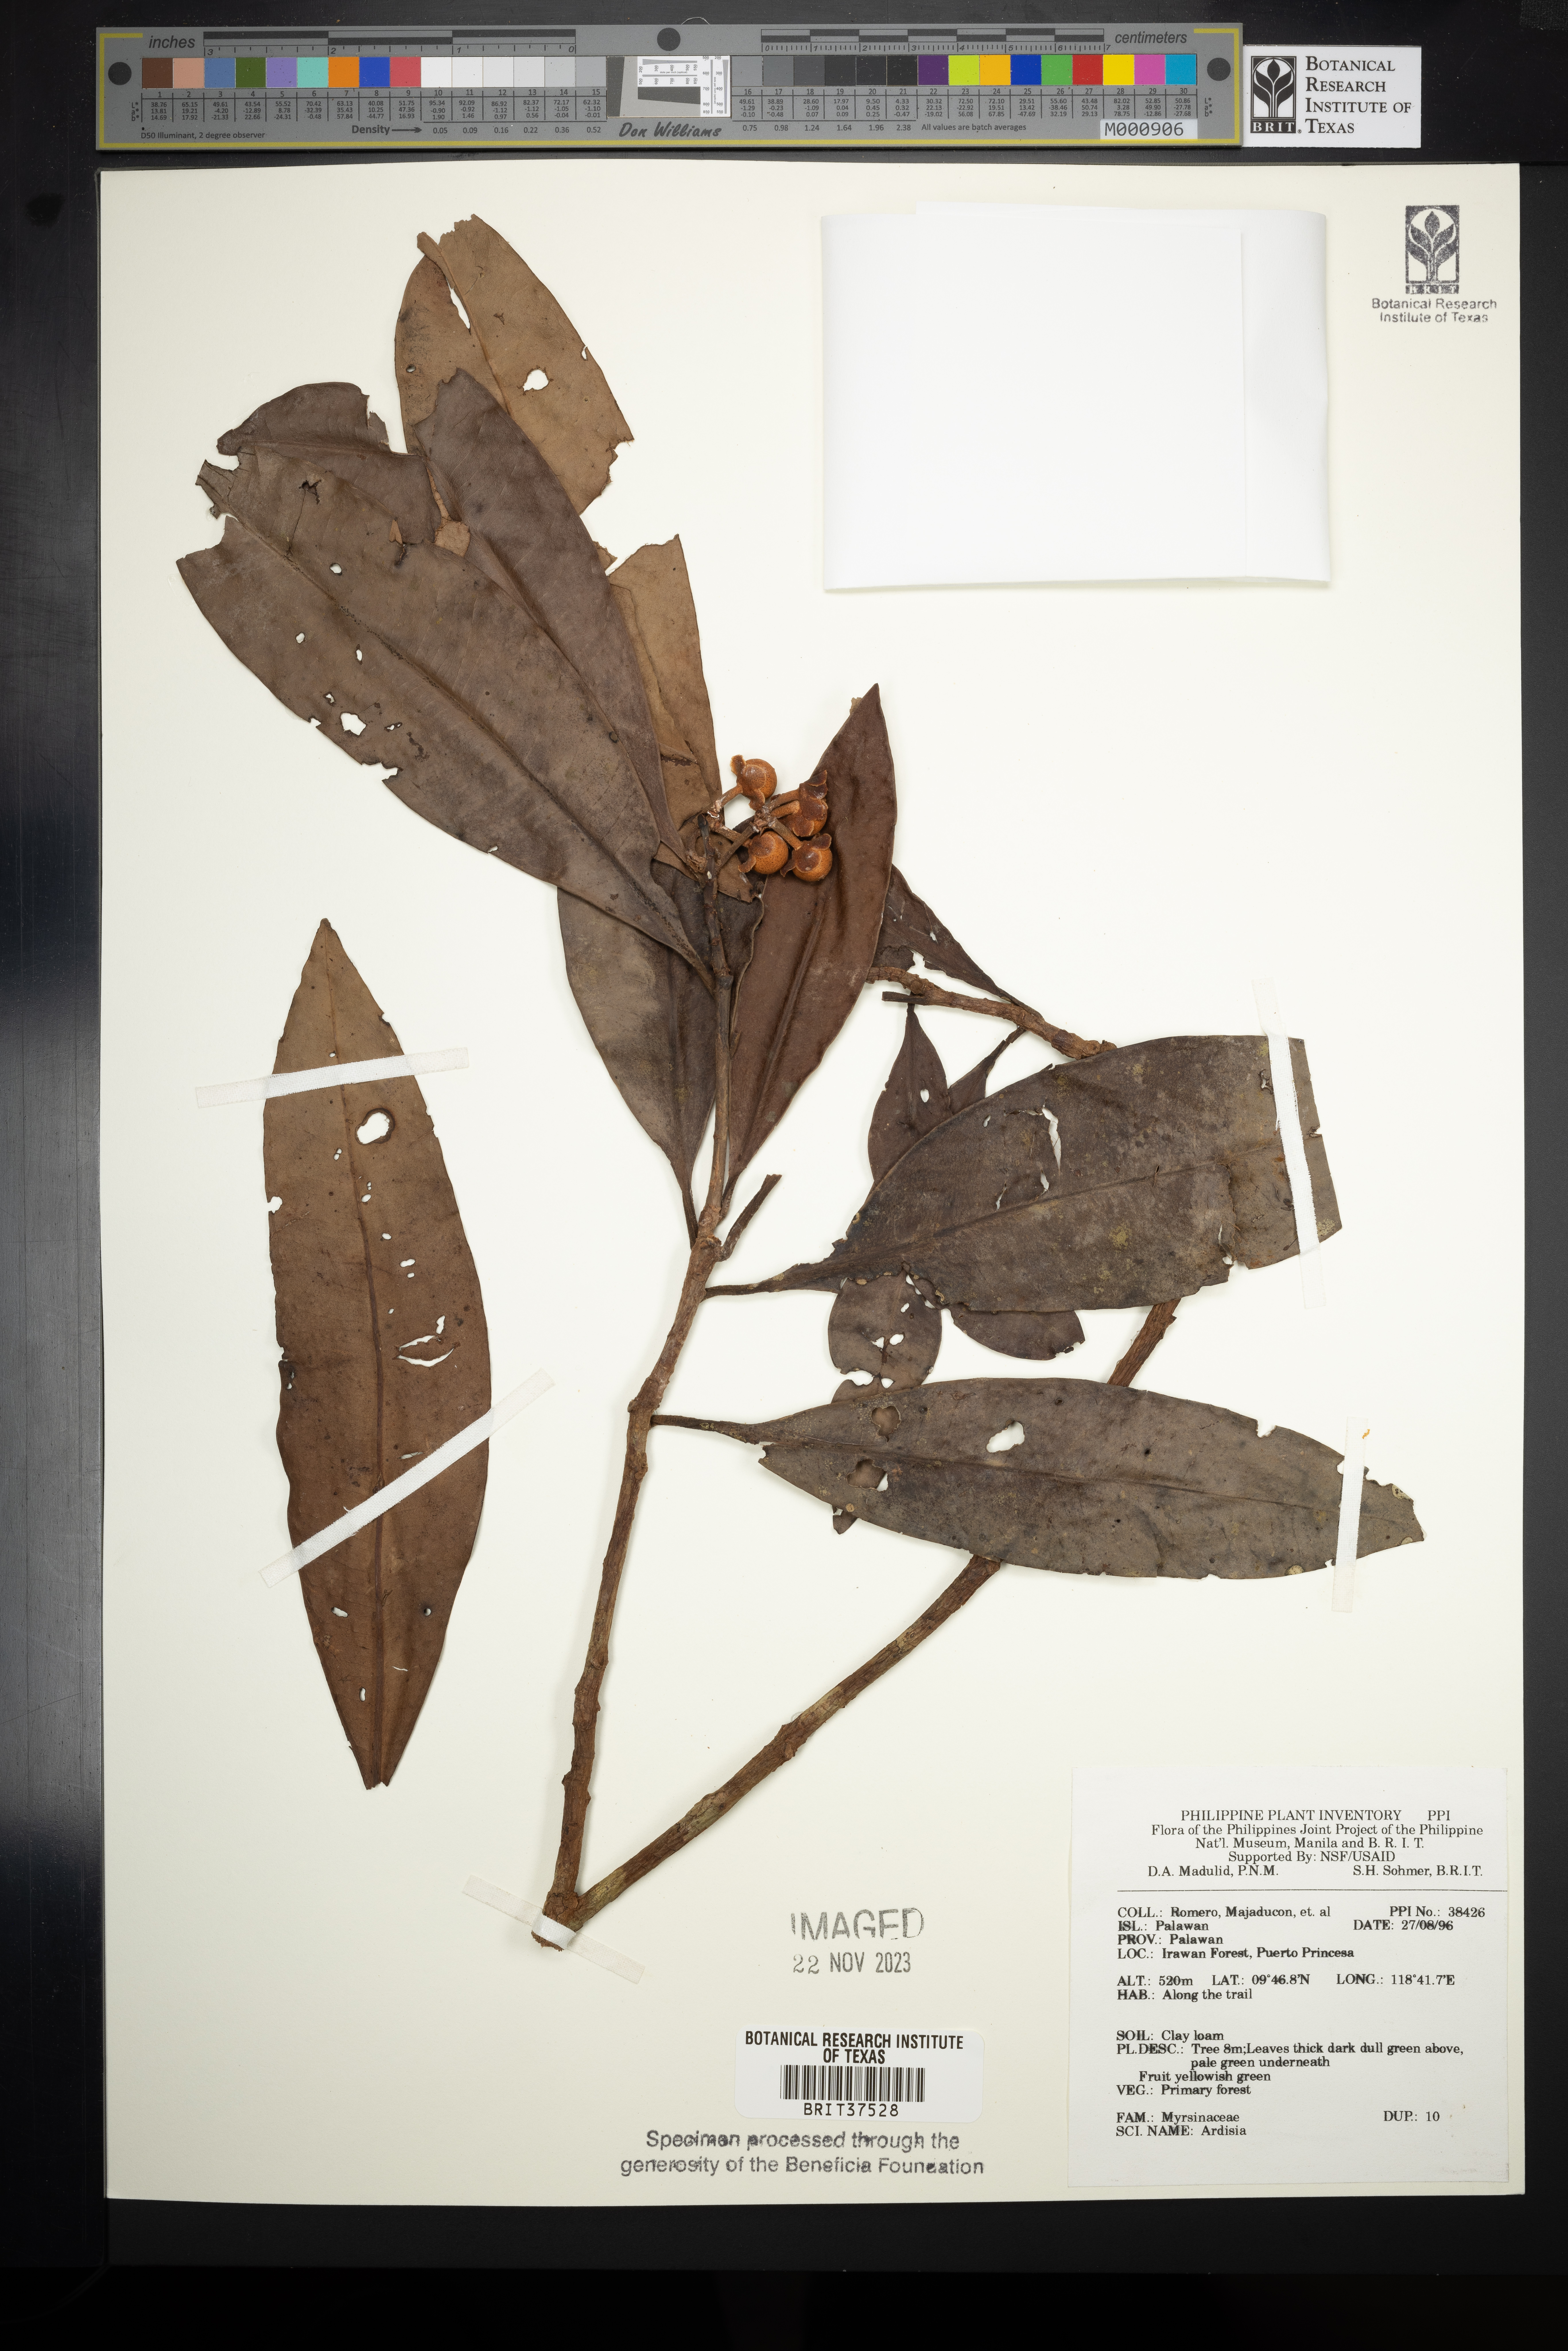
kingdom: Plantae
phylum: Tracheophyta
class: Magnoliopsida
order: Ericales
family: Primulaceae
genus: Ardisia
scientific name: Ardisia
